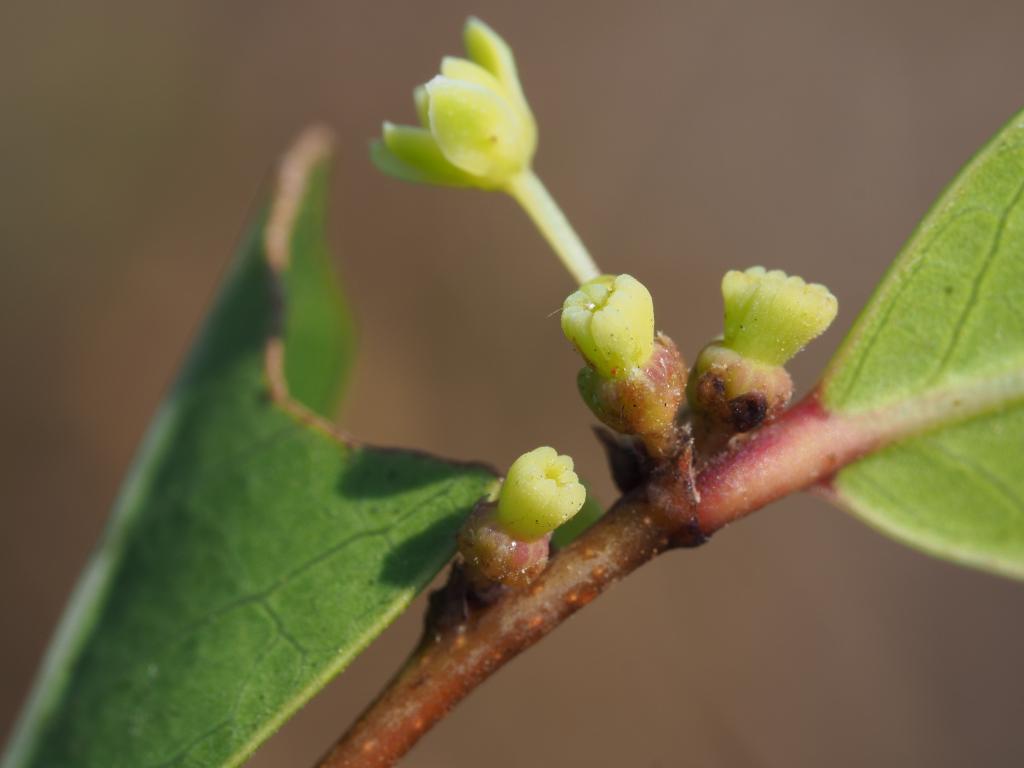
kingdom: Plantae
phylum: Tracheophyta
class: Magnoliopsida
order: Malpighiales
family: Phyllanthaceae
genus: Glochidion
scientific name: Glochidion rubrum
